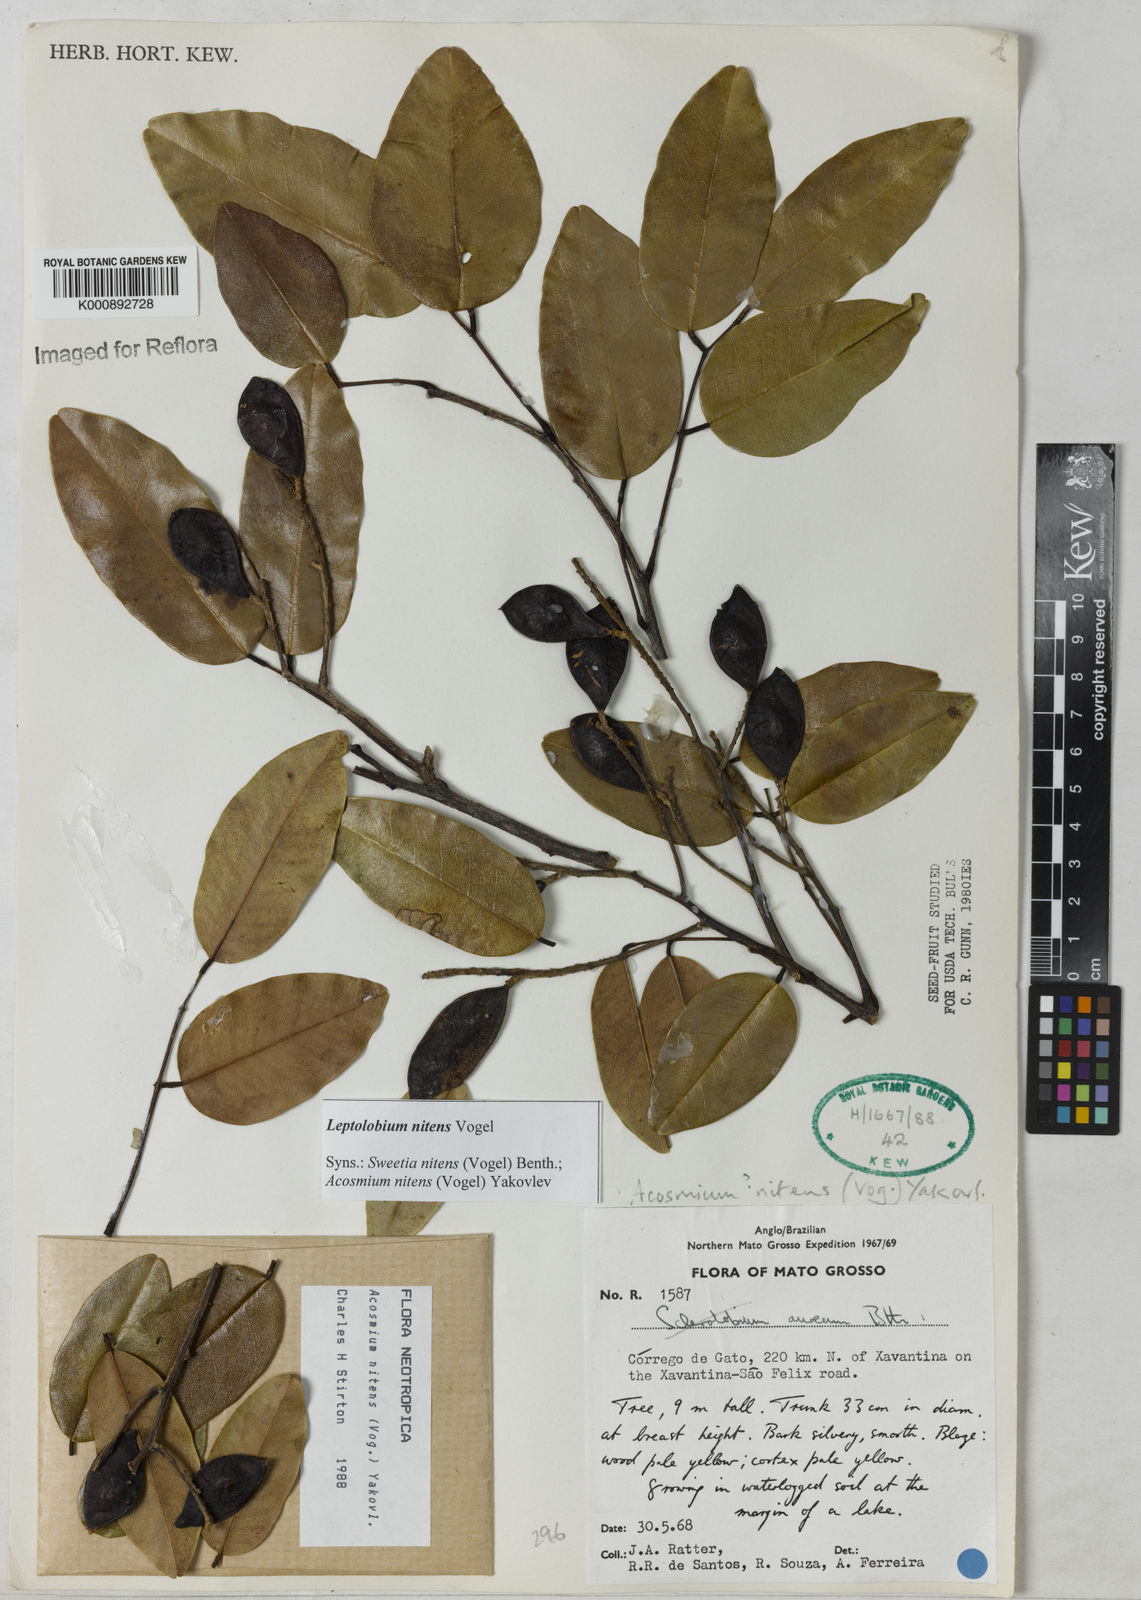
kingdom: Plantae
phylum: Tracheophyta
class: Magnoliopsida
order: Fabales
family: Fabaceae
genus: Leptolobium
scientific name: Leptolobium nitens
